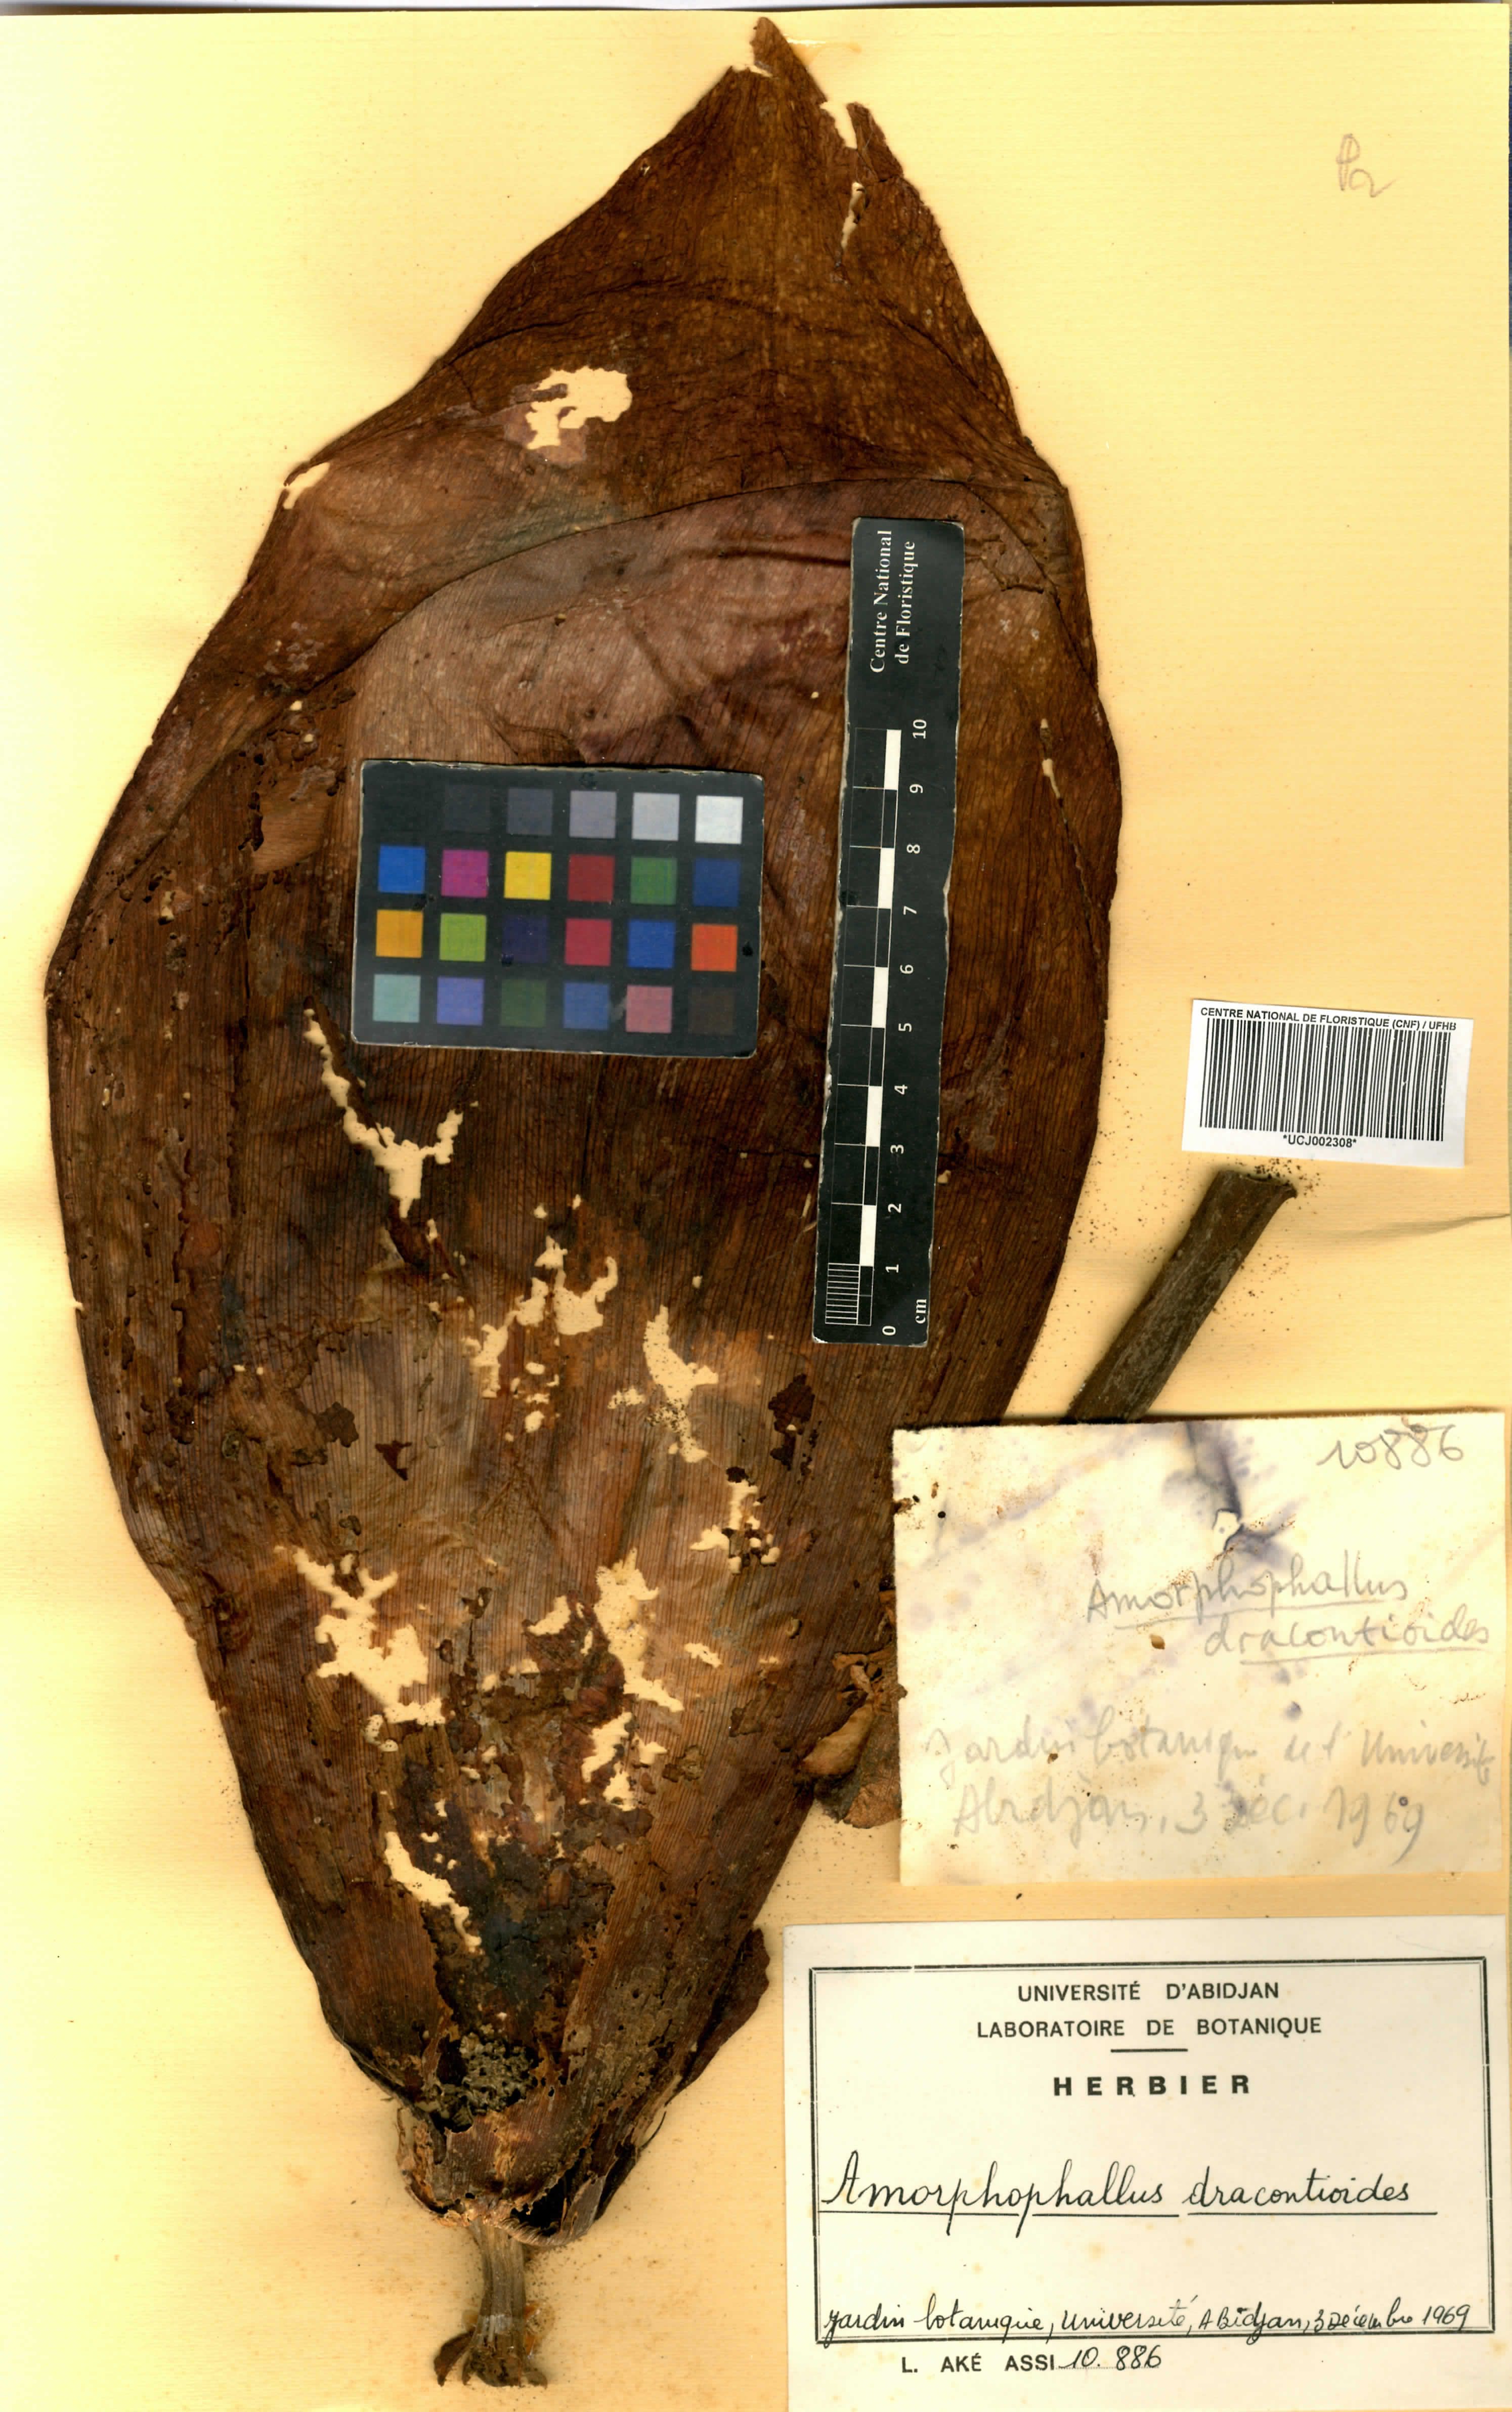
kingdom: Plantae
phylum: Tracheophyta
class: Liliopsida
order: Alismatales
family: Araceae
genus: Amorphophallus
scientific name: Amorphophallus dracontioides
